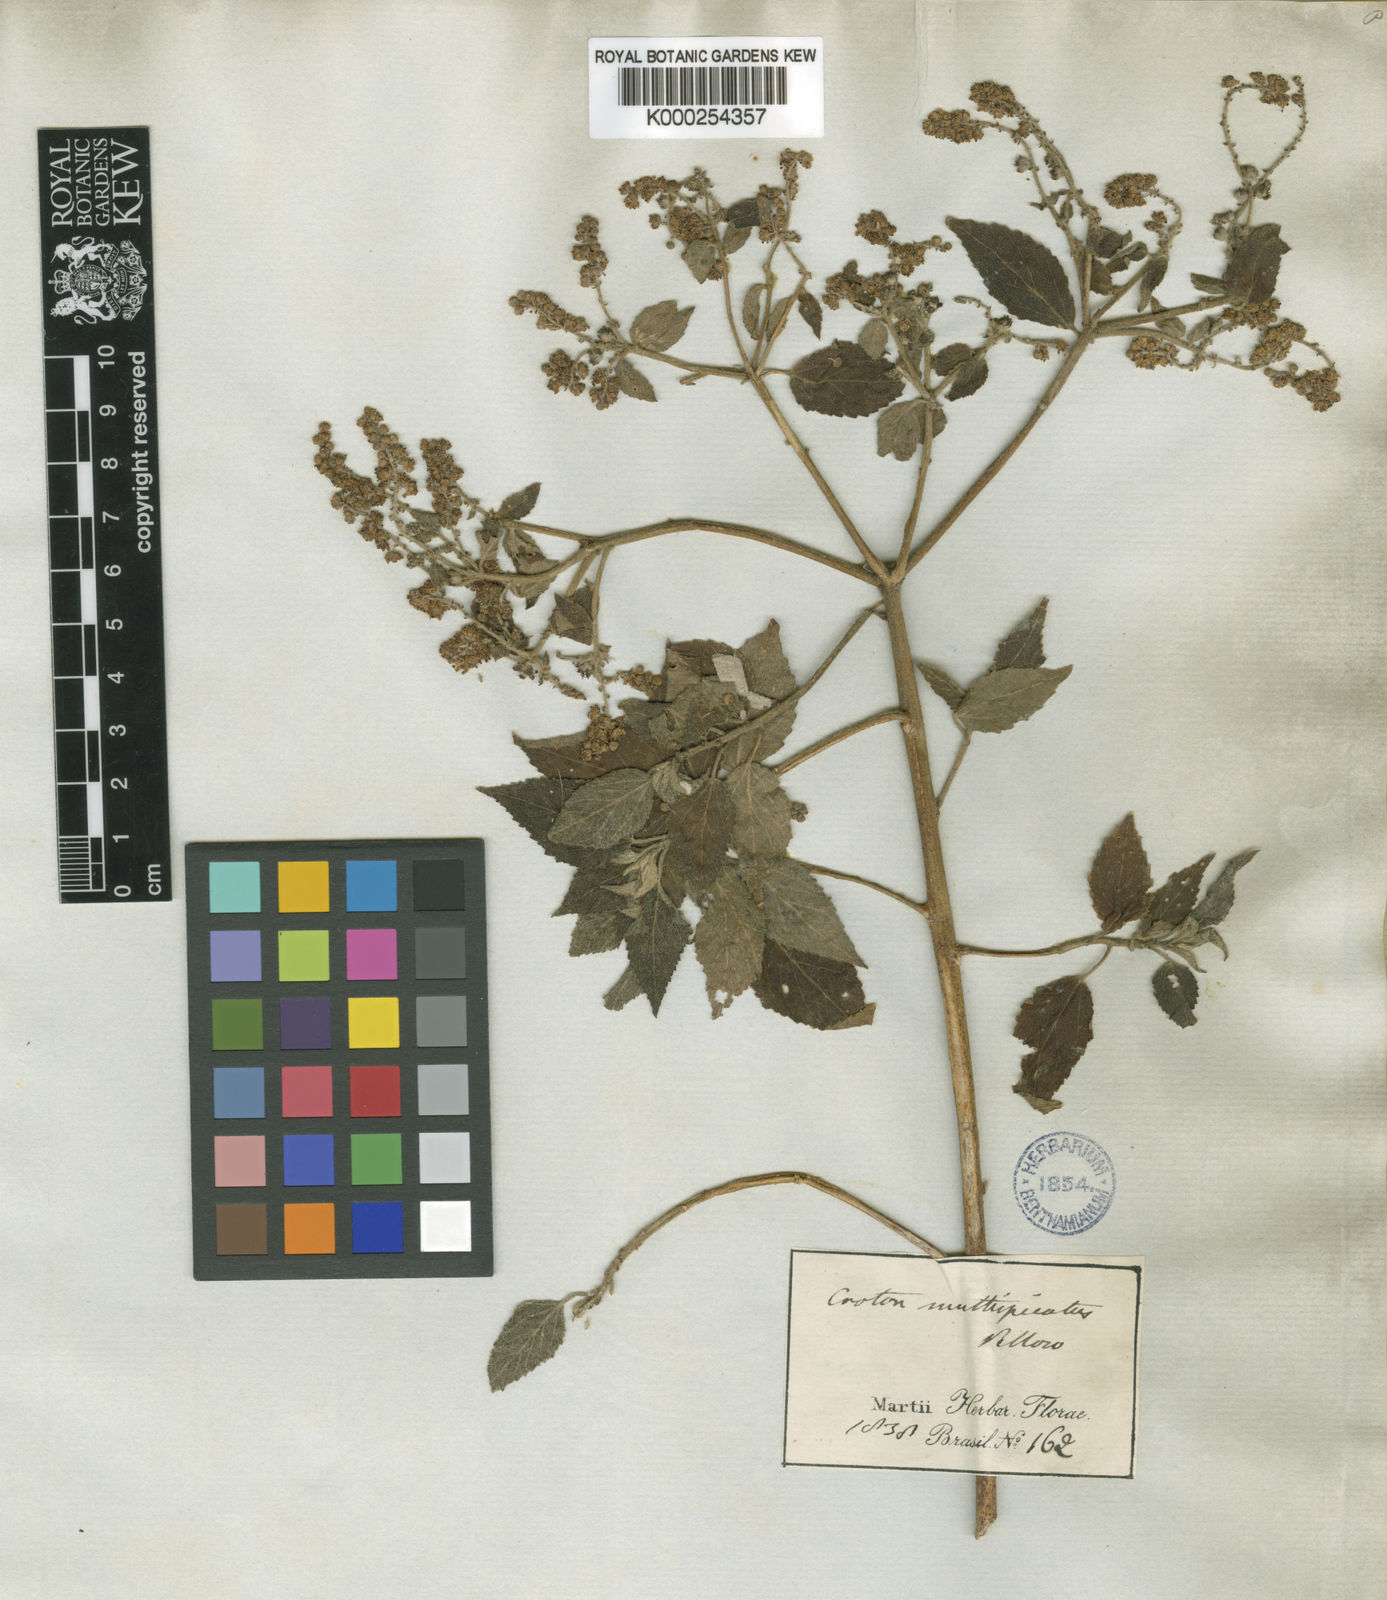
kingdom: Plantae
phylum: Tracheophyta
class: Magnoliopsida
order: Malpighiales
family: Euphorbiaceae
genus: Croton
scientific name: Croton urticifolius
